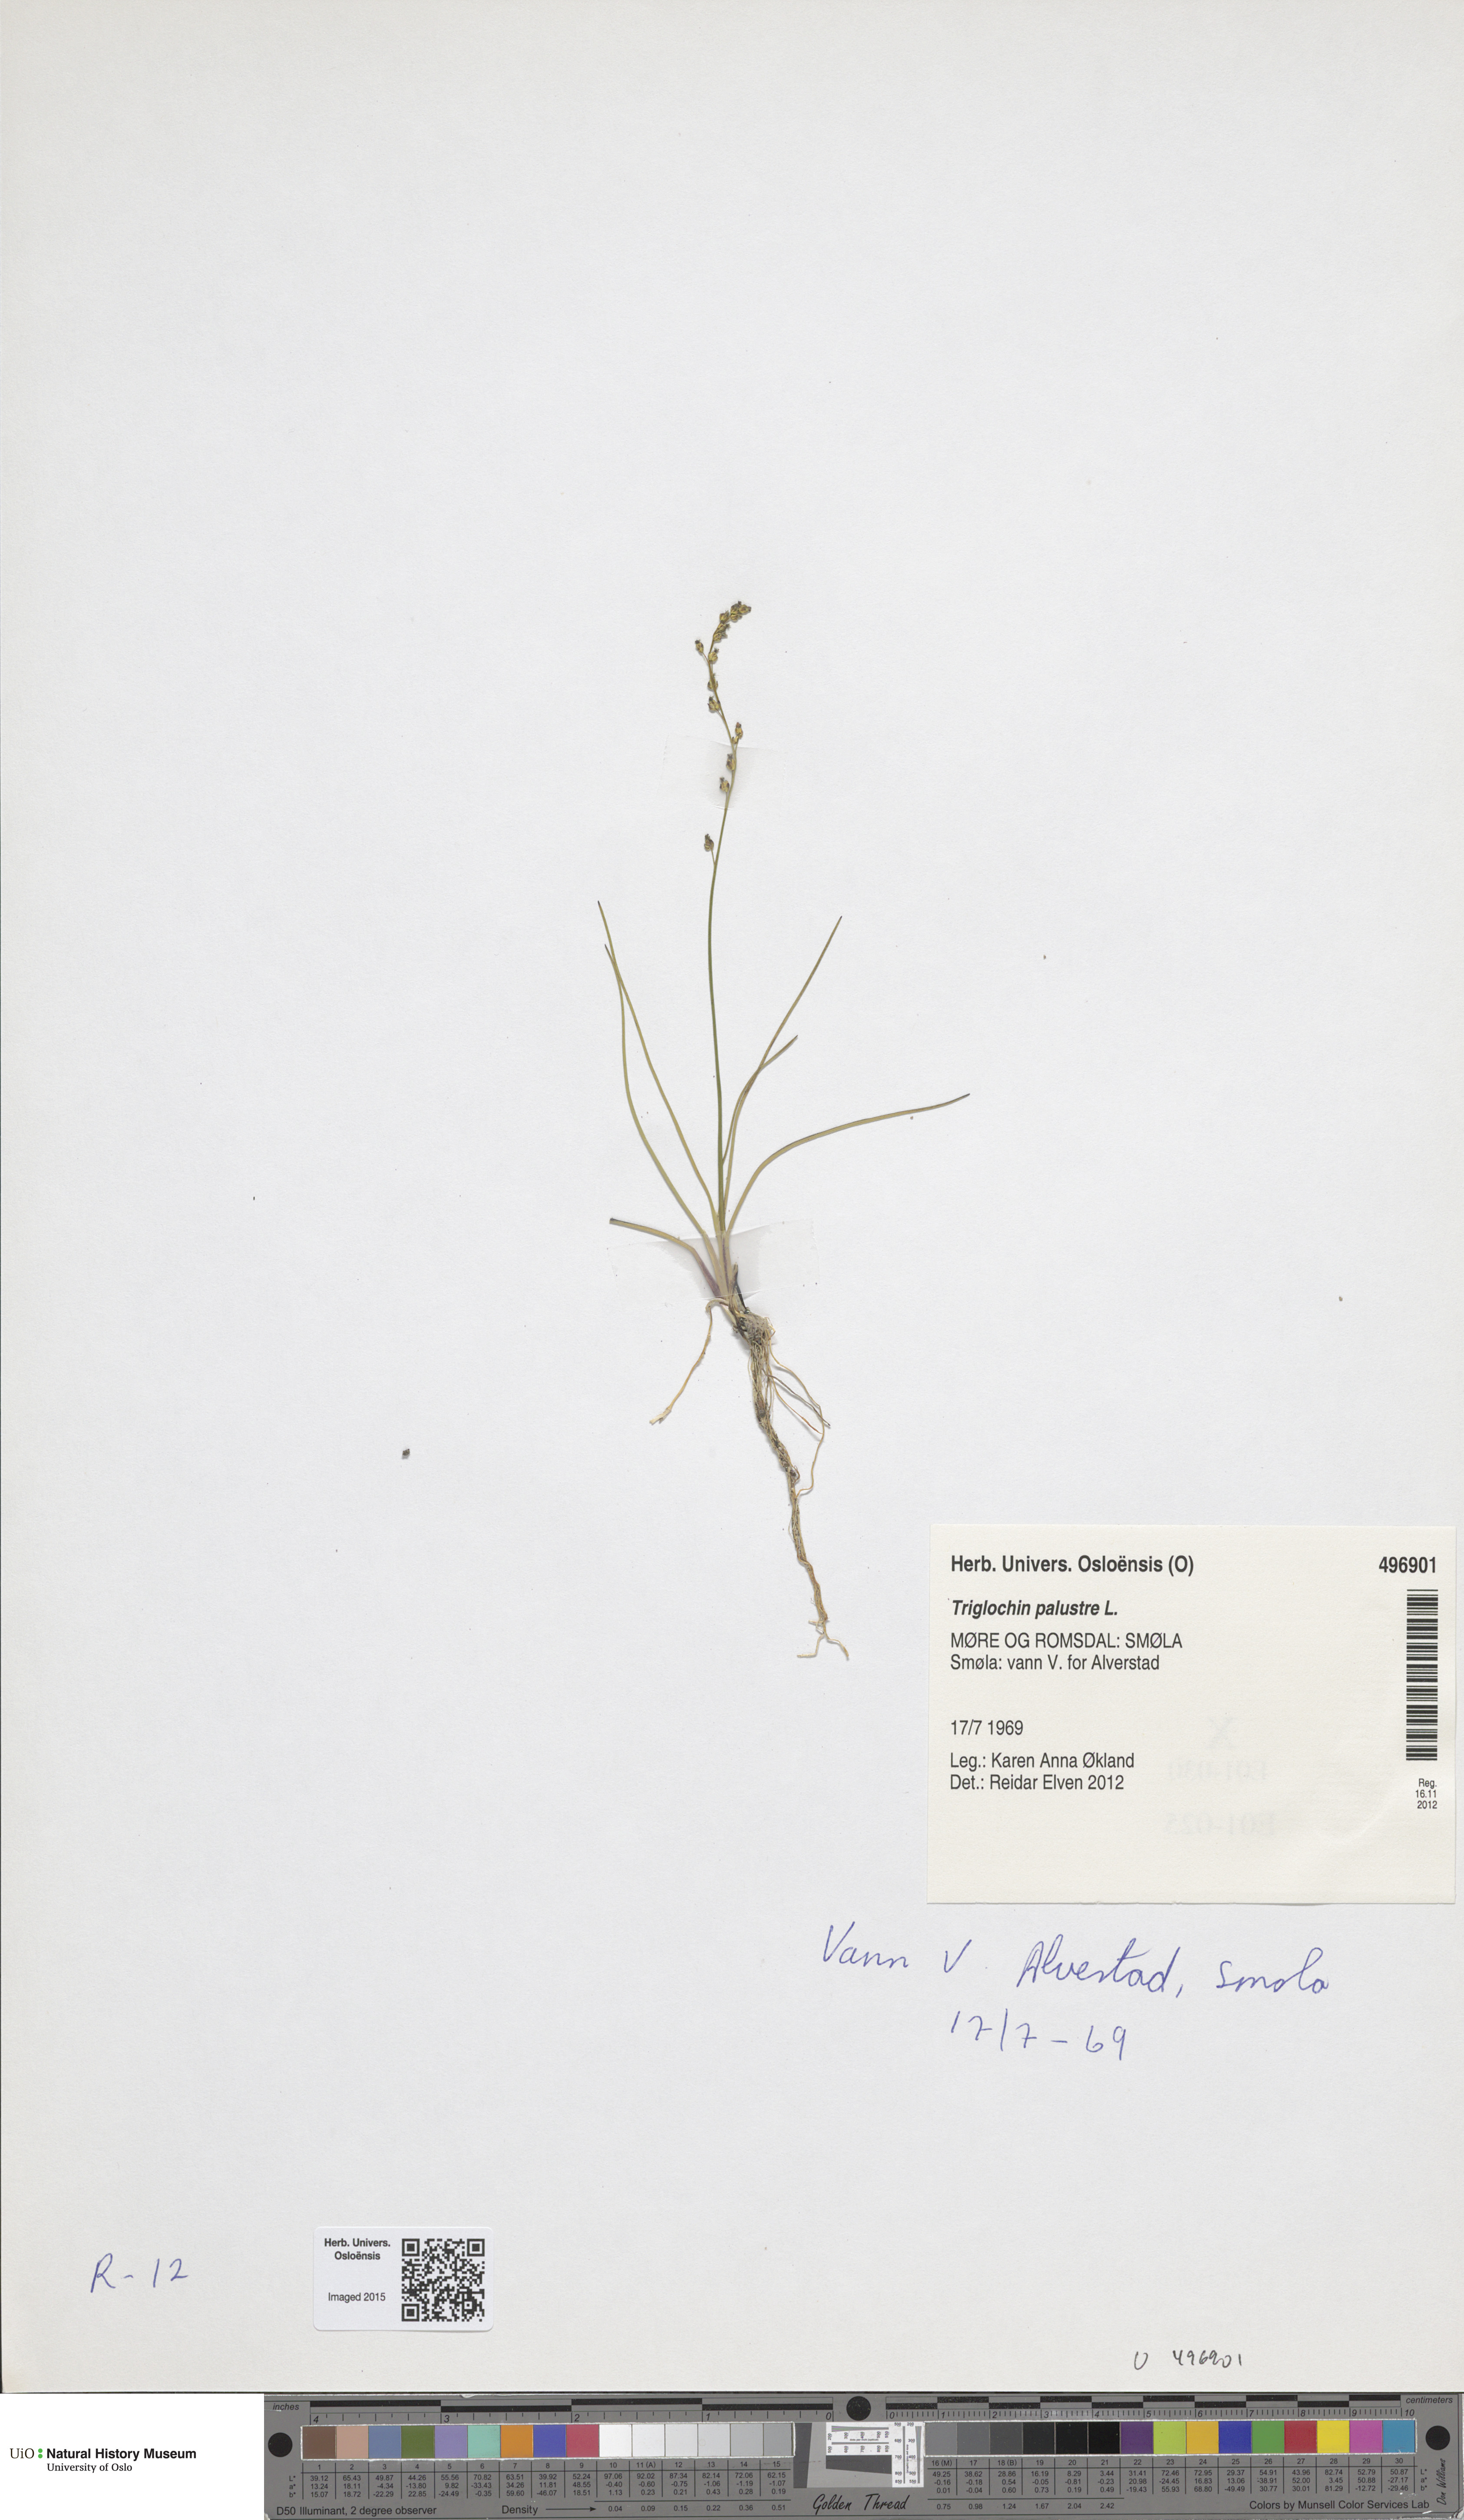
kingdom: Plantae
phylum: Tracheophyta
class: Liliopsida
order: Alismatales
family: Juncaginaceae
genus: Triglochin
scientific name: Triglochin palustris
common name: Marsh arrowgrass
